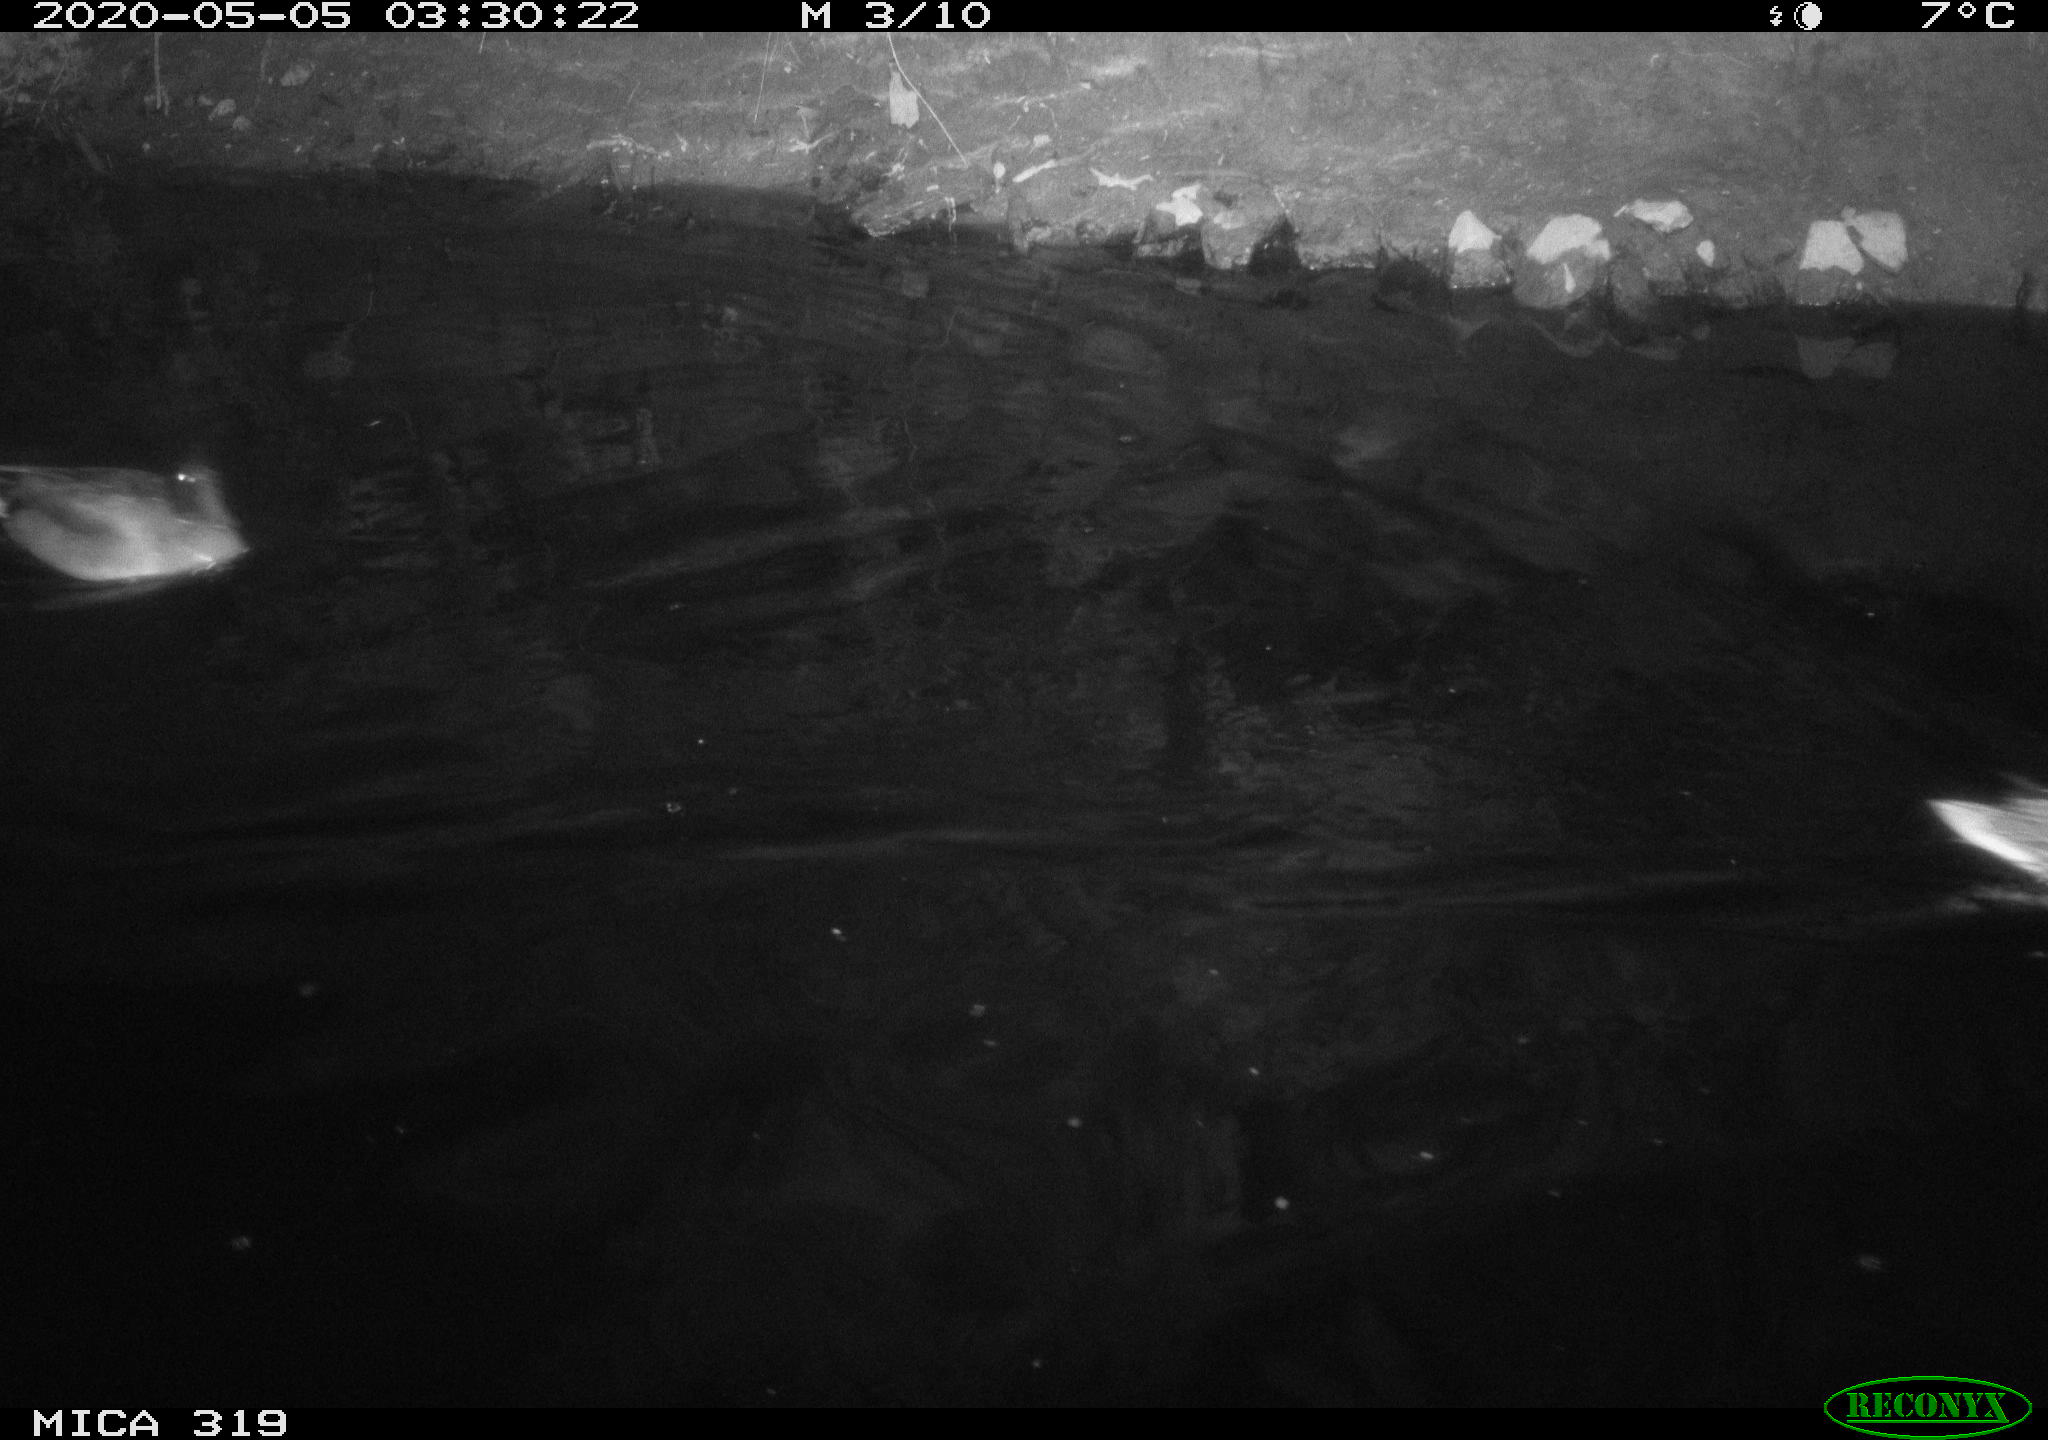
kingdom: Animalia
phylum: Chordata
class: Aves
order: Anseriformes
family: Anatidae
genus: Anas
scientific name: Anas platyrhynchos
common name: Mallard
